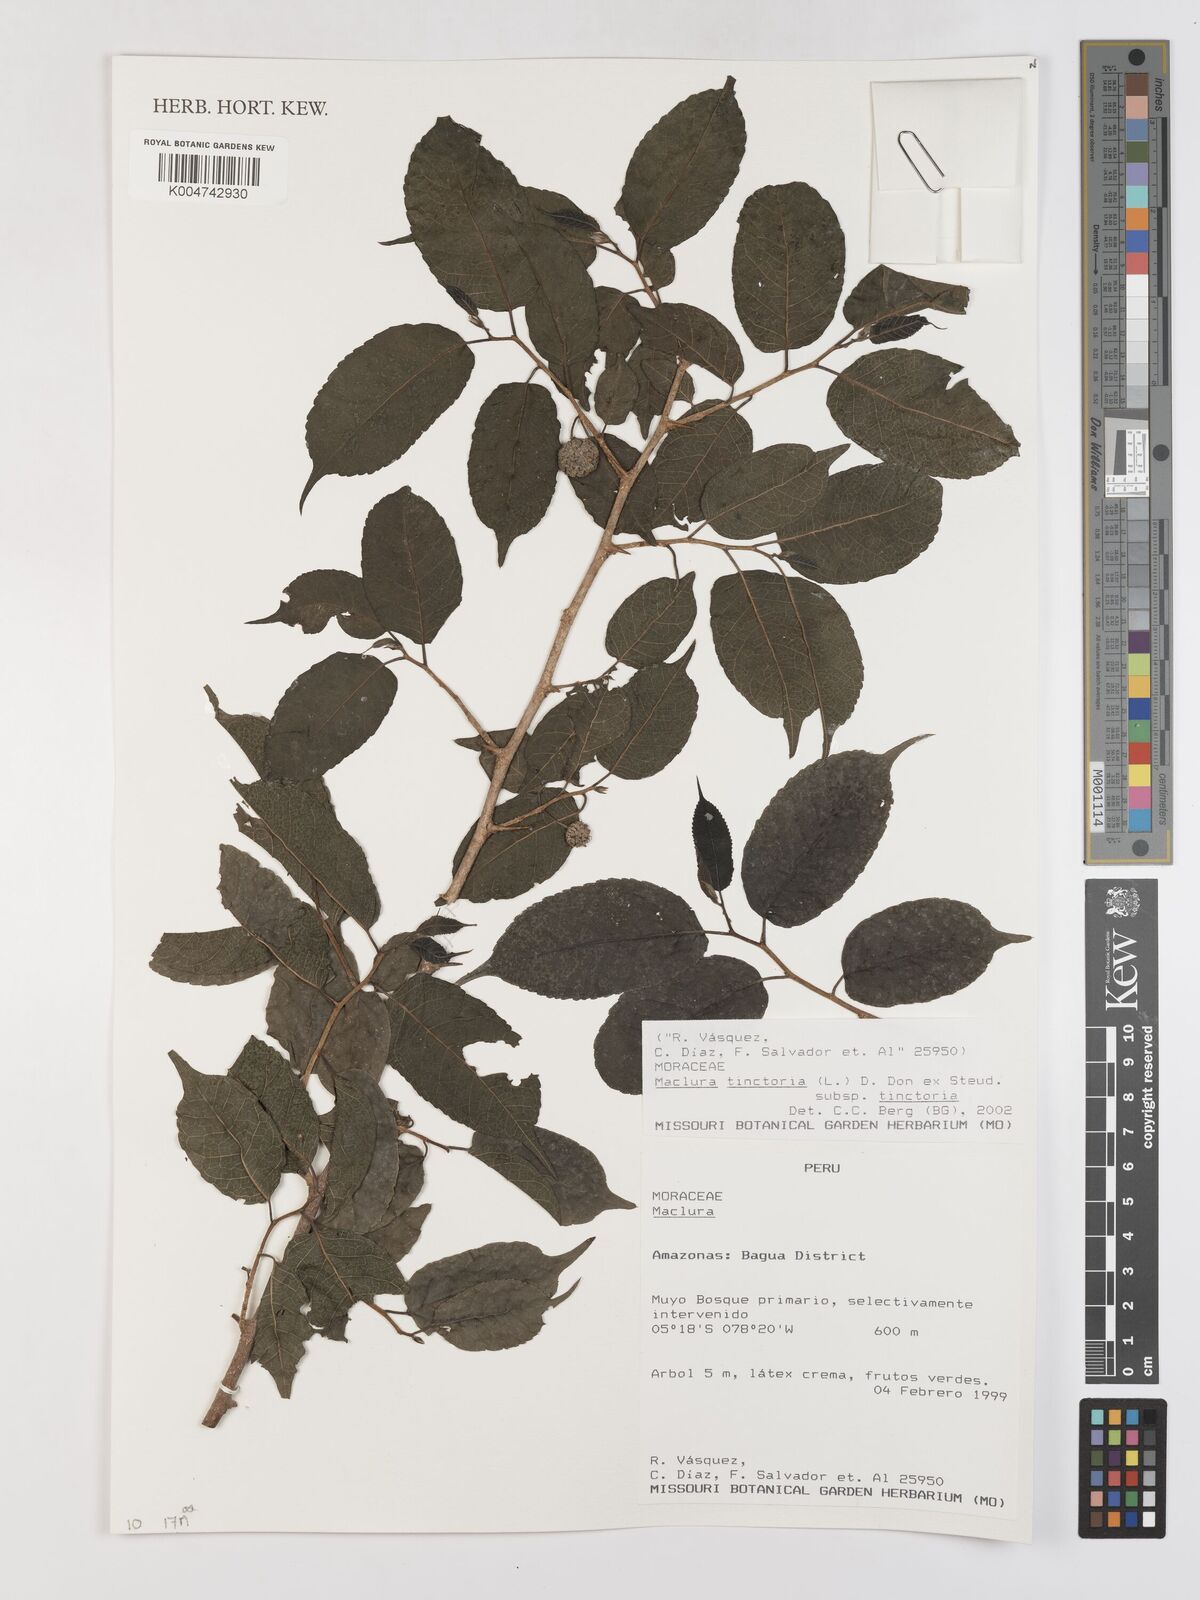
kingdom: Plantae
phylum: Tracheophyta
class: Magnoliopsida
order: Rosales
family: Moraceae
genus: Maclura
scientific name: Maclura tinctoria
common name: Old fustic
